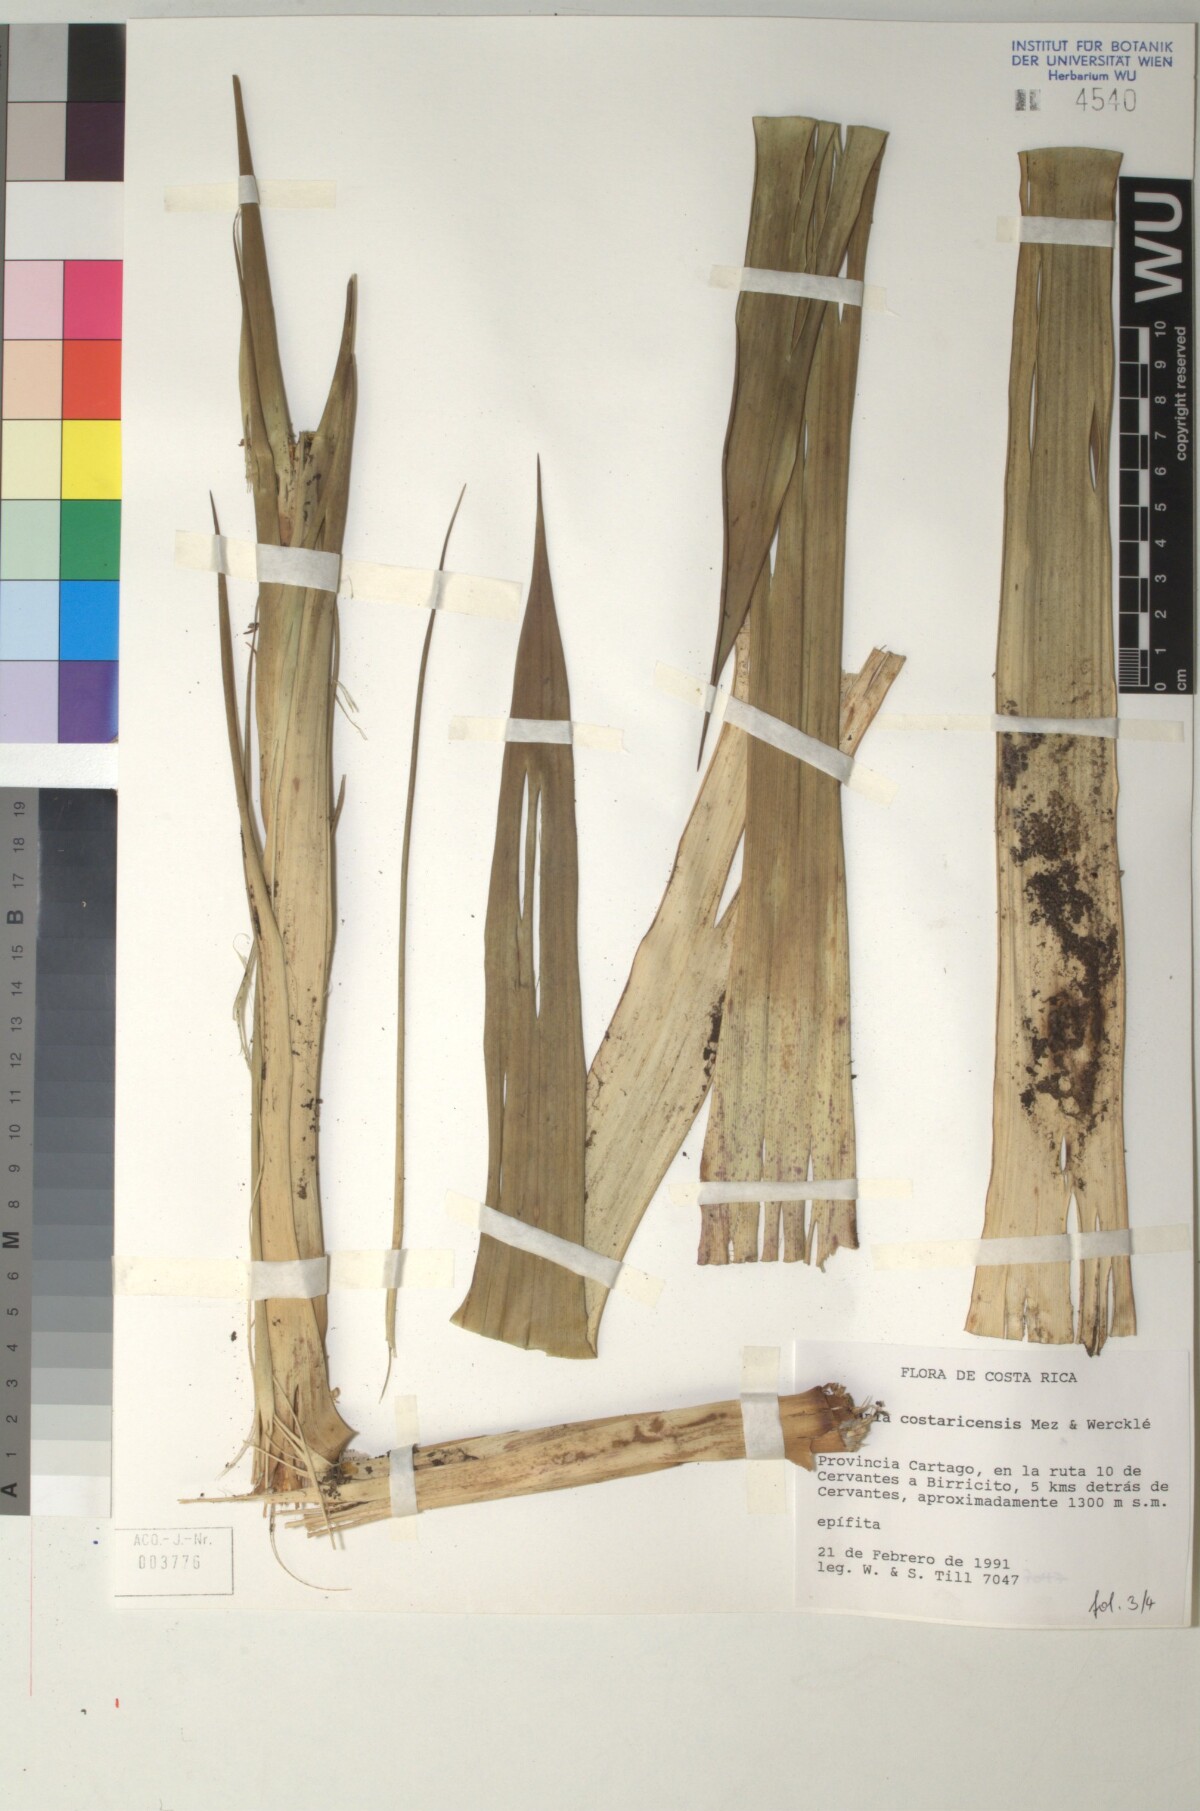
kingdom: Plantae
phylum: Tracheophyta
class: Liliopsida
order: Poales
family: Bromeliaceae
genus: Guzmania
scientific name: Guzmania condensata
